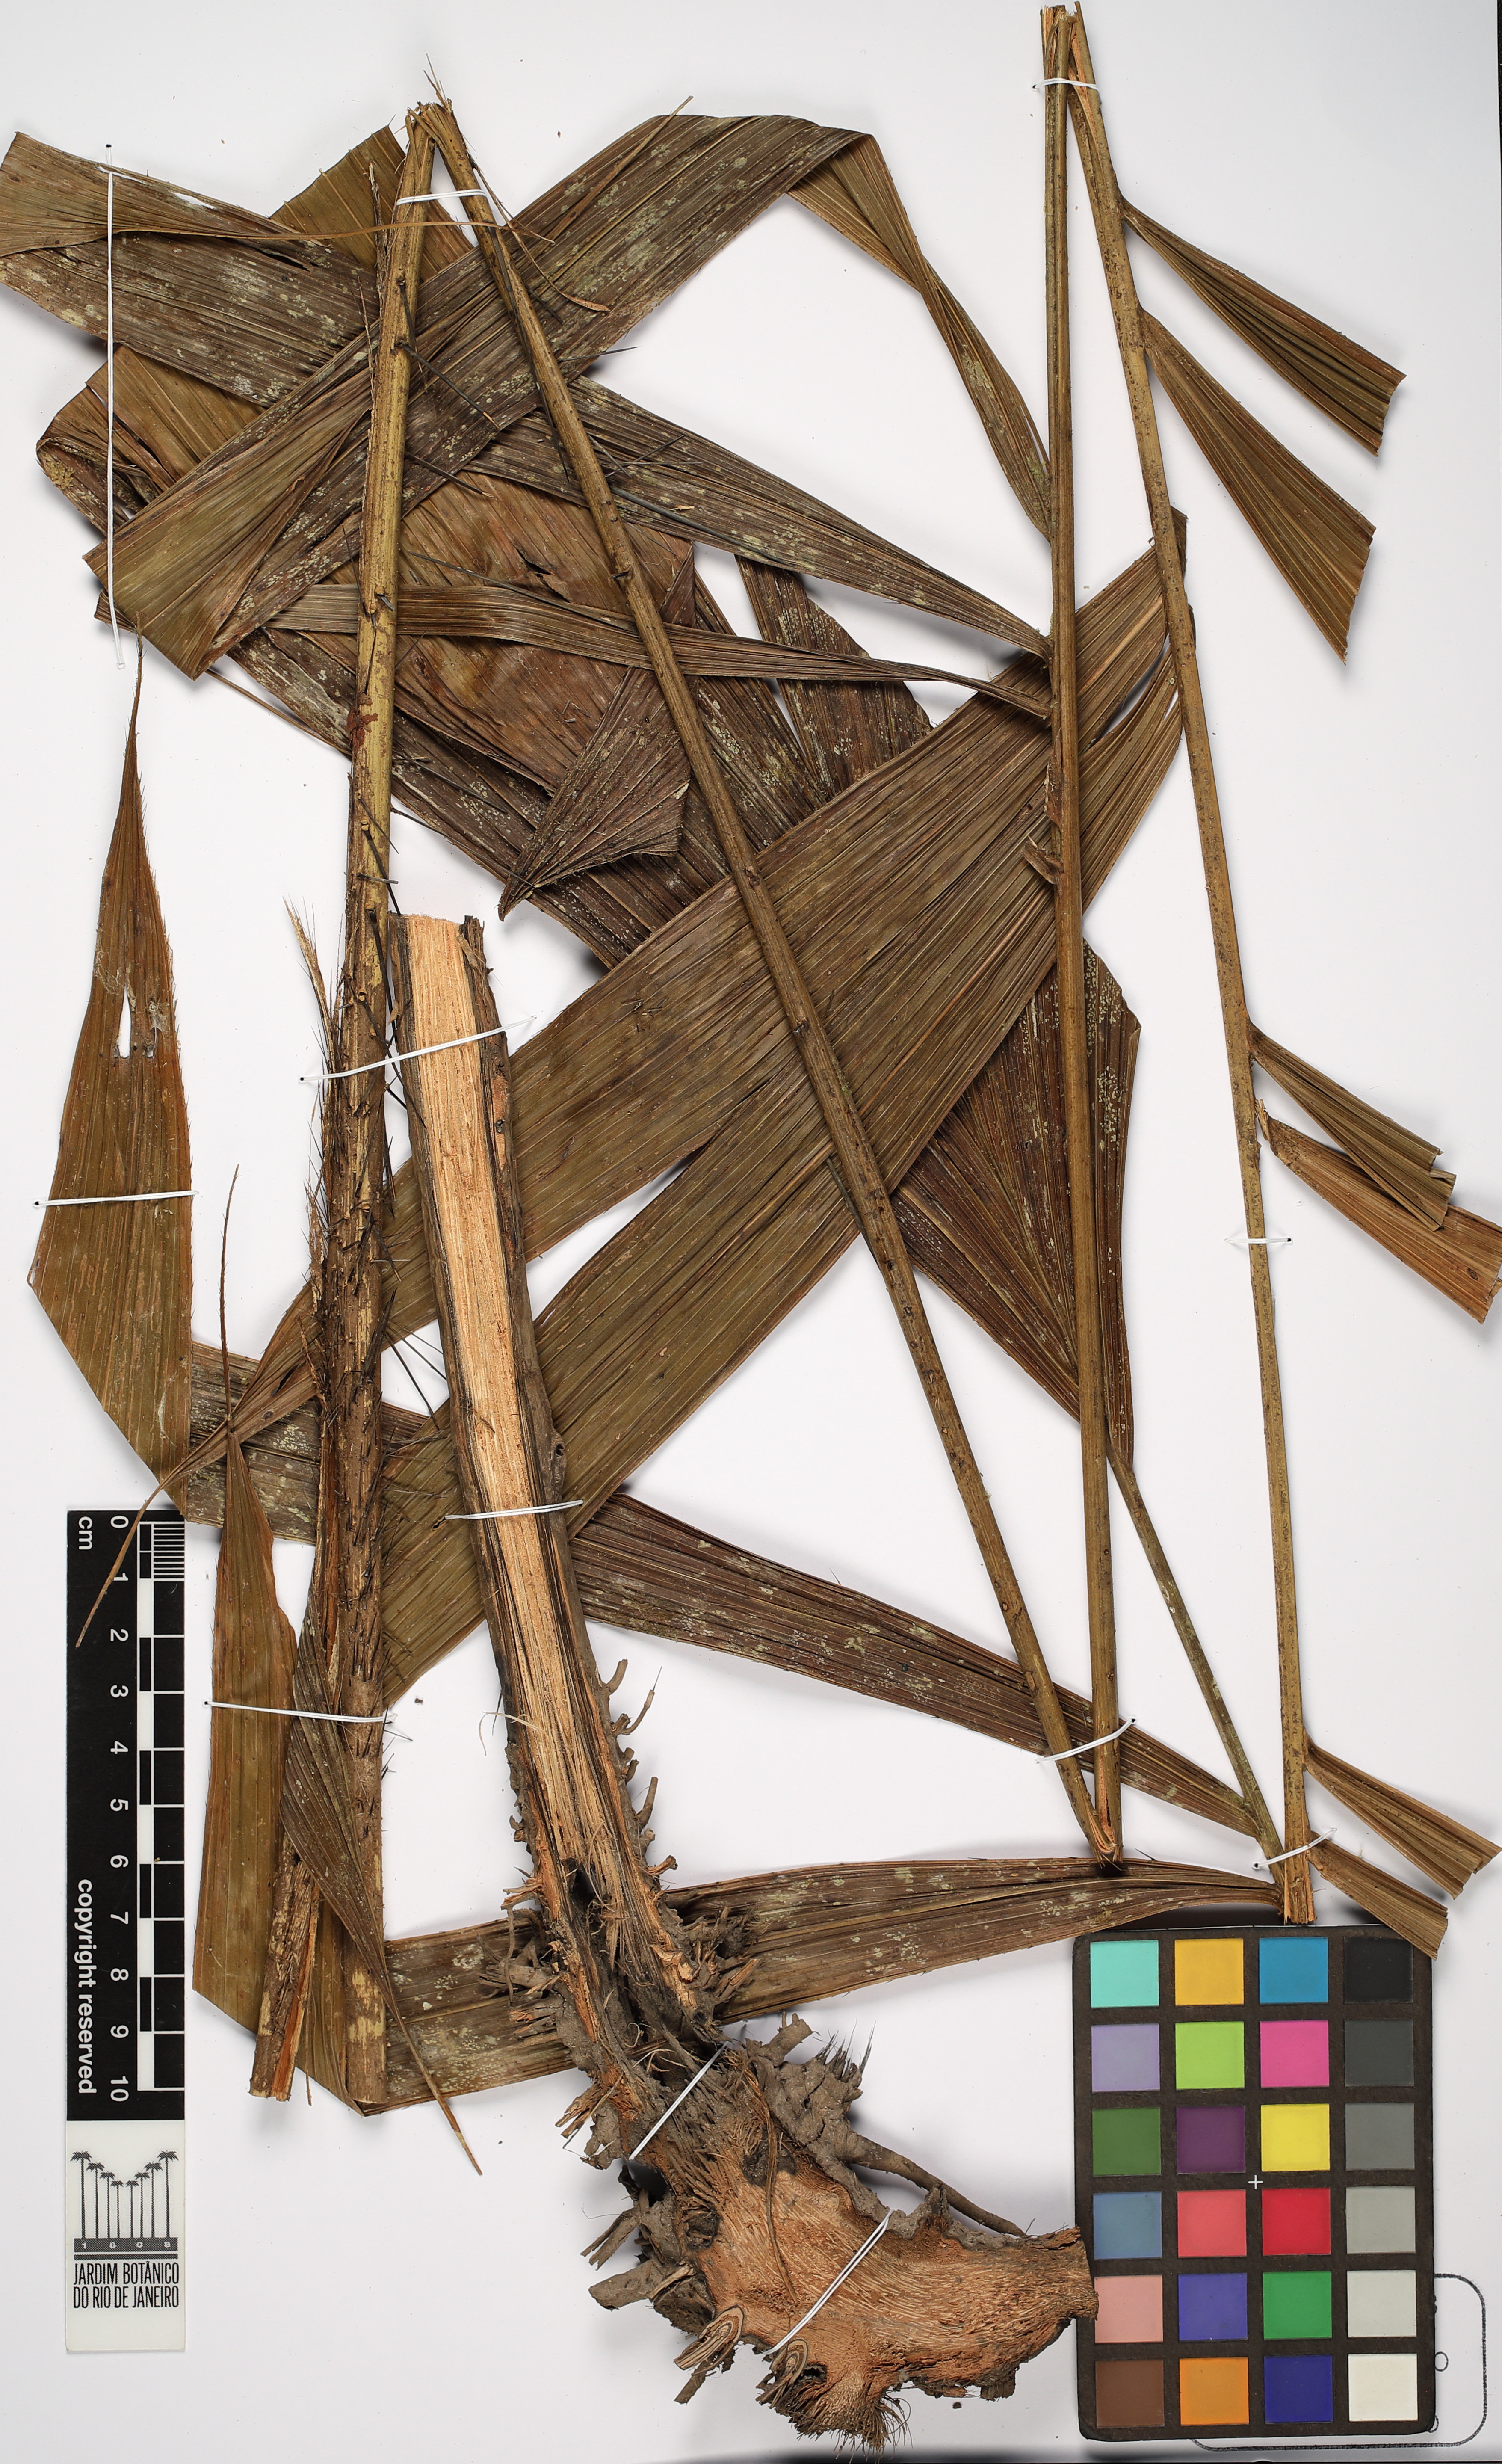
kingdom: Plantae
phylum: Tracheophyta
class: Liliopsida
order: Arecales
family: Arecaceae
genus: Bactris
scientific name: Bactris
